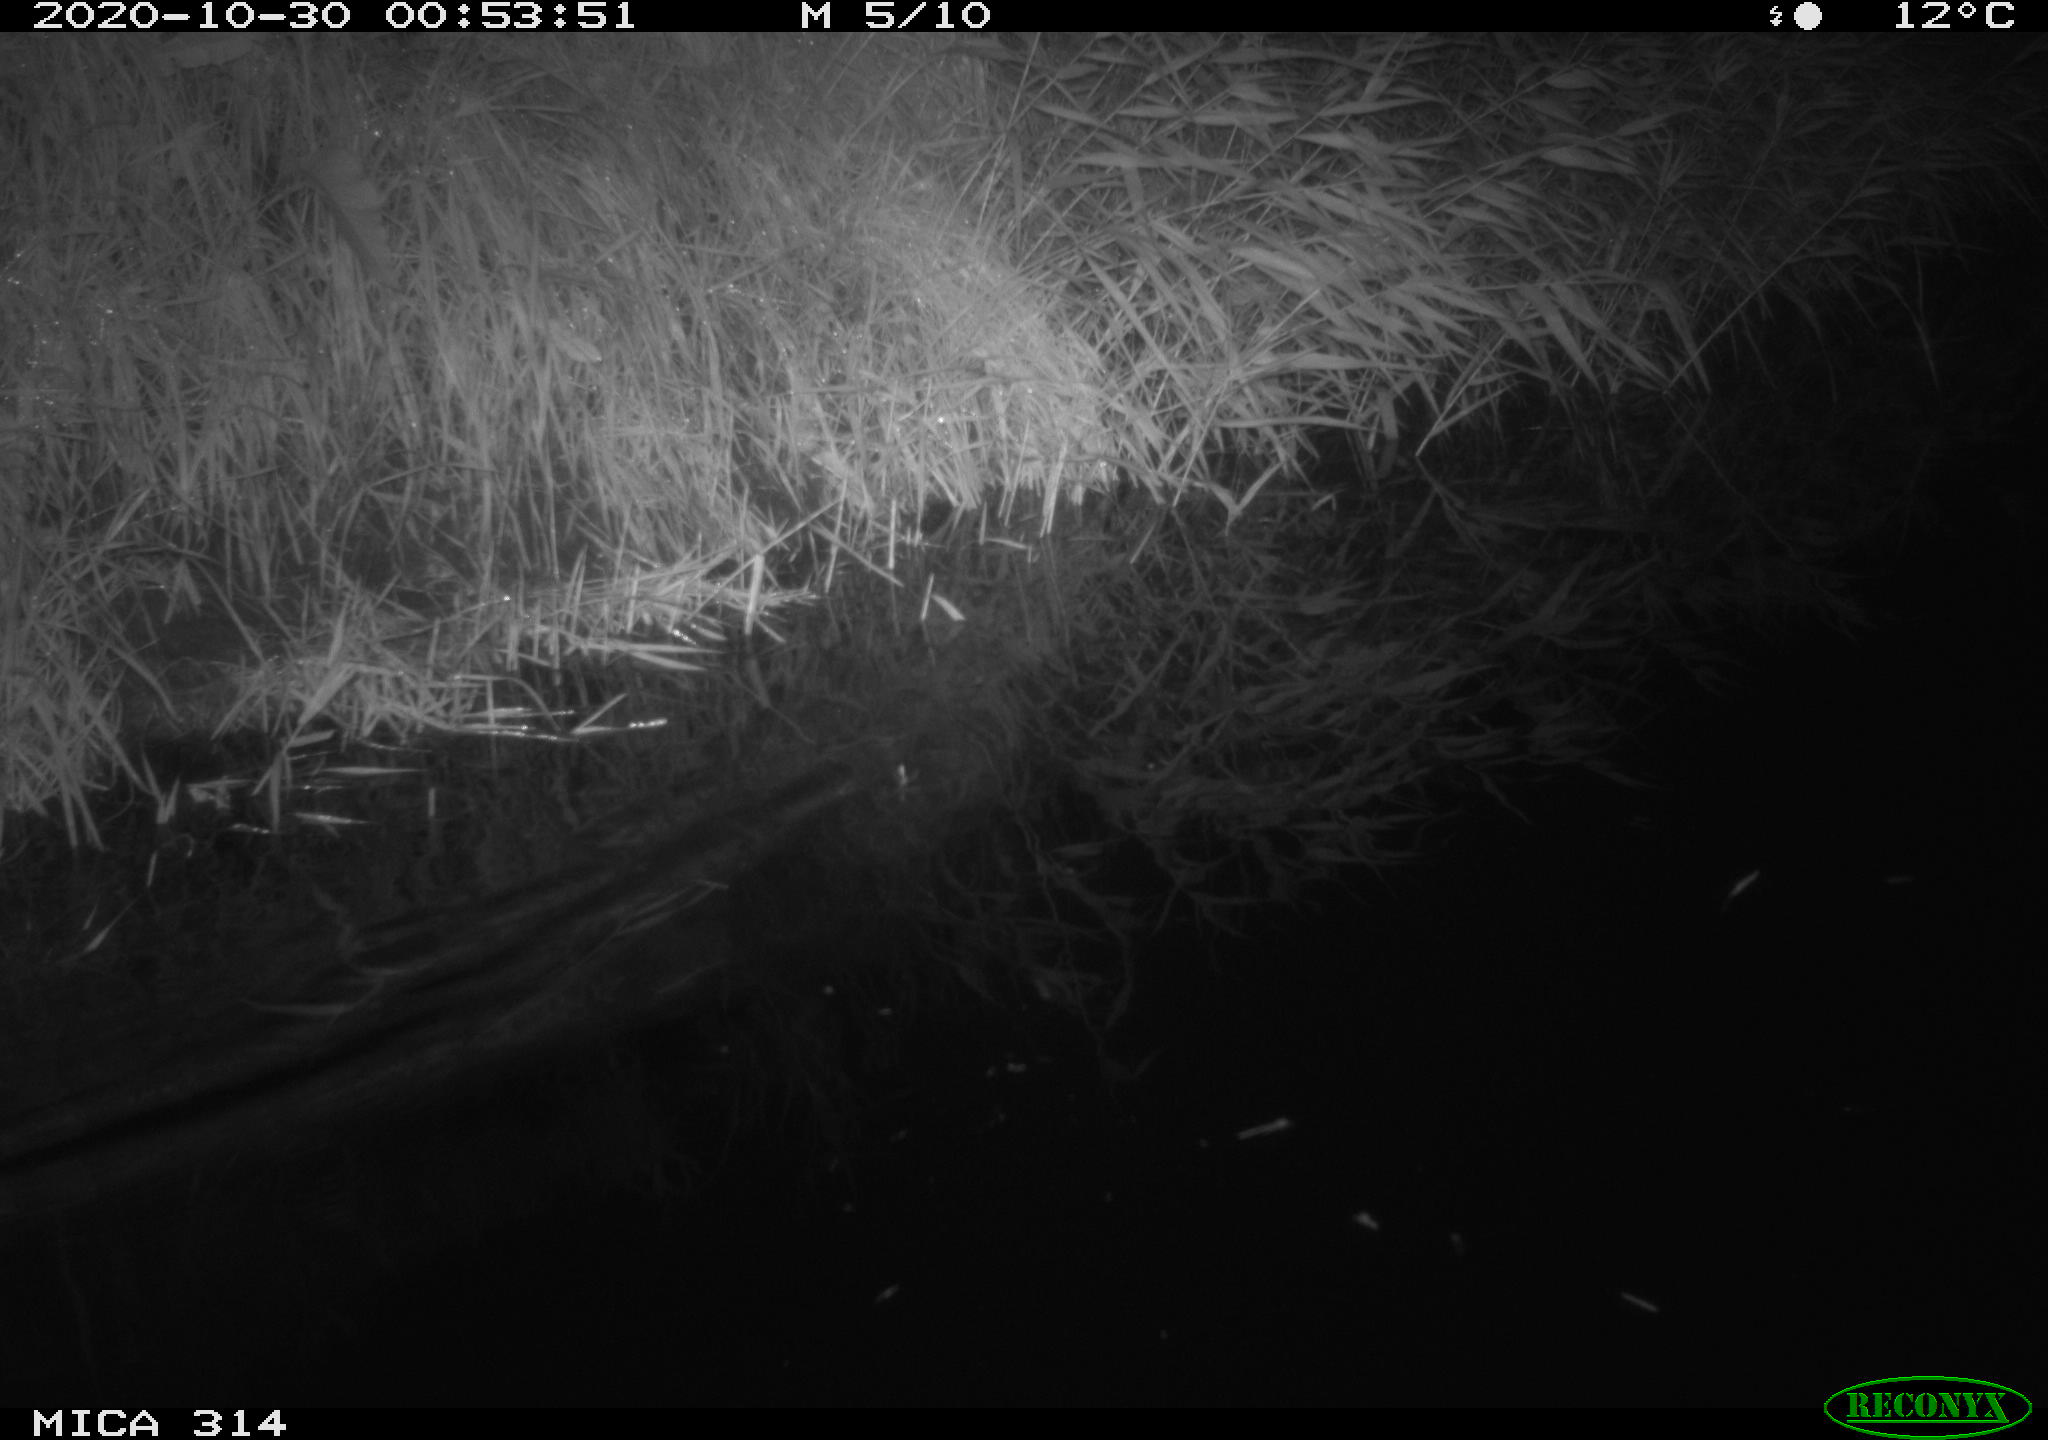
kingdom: Animalia
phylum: Chordata
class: Mammalia
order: Rodentia
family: Muridae
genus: Rattus
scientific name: Rattus norvegicus
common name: Brown rat
